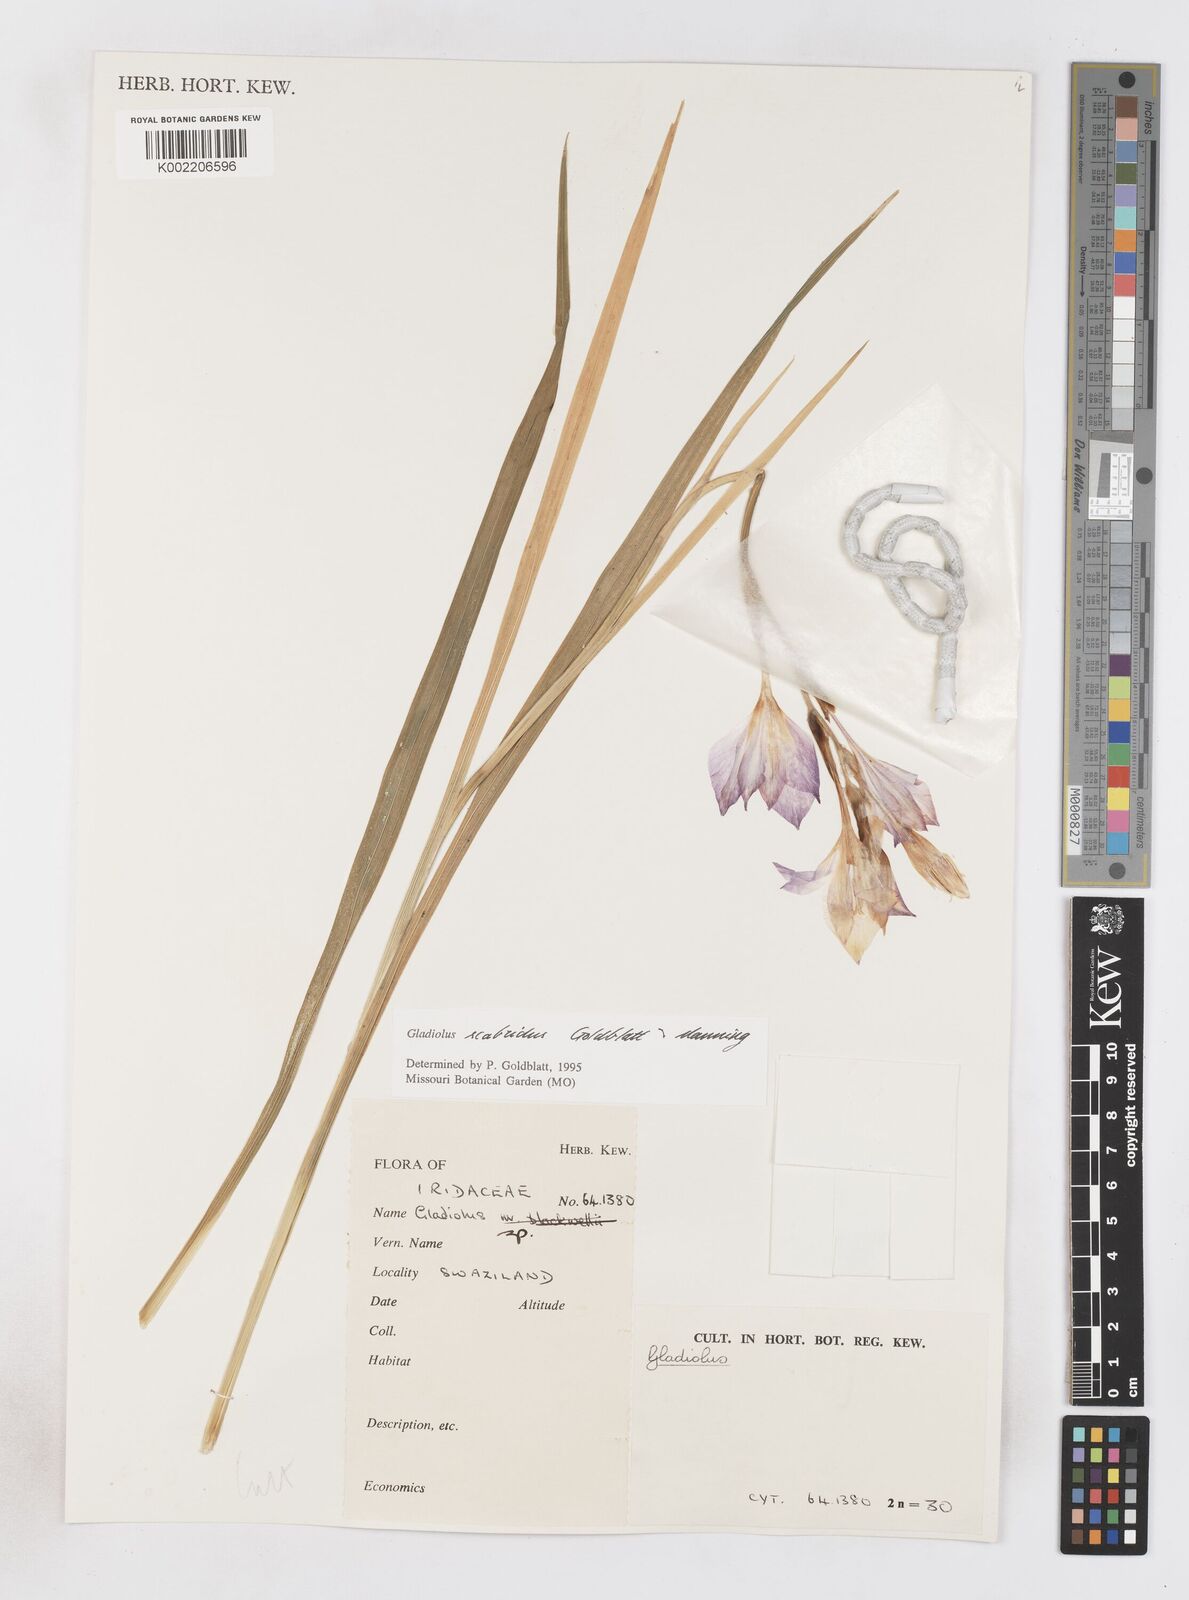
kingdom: Plantae
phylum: Tracheophyta
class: Liliopsida
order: Asparagales
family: Iridaceae
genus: Gladiolus
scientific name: Gladiolus scabridus
